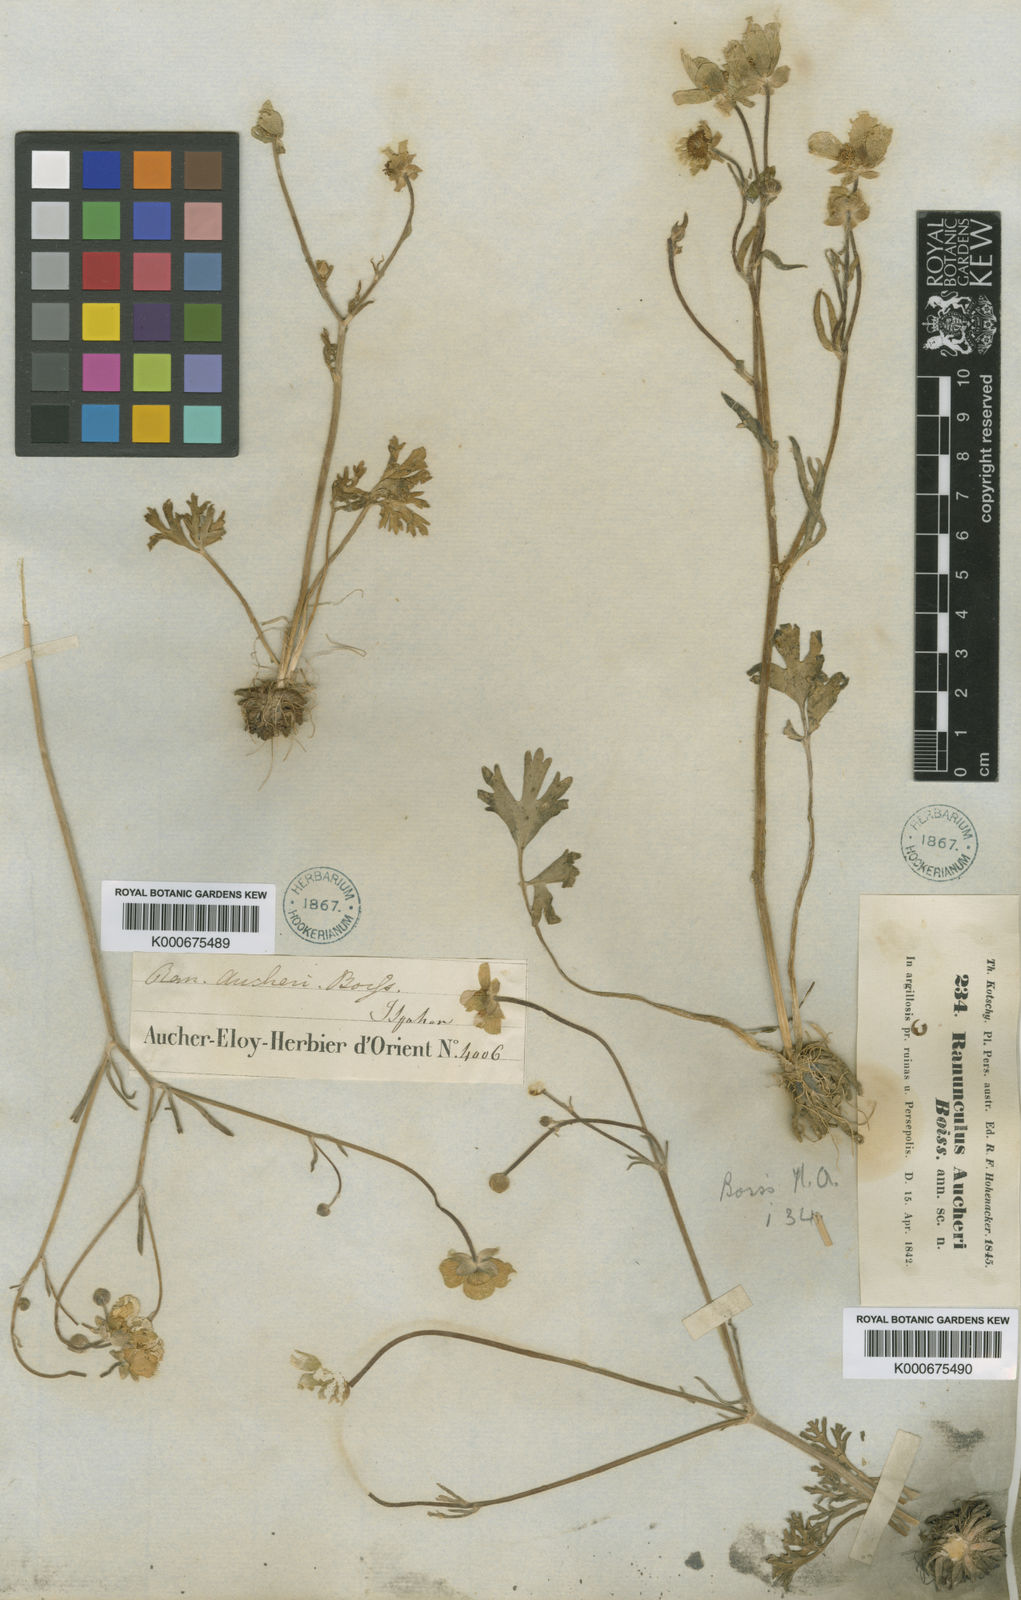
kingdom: Plantae
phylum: Tracheophyta
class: Magnoliopsida
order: Ranunculales
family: Ranunculaceae
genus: Ranunculus
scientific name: Ranunculus aucheri
